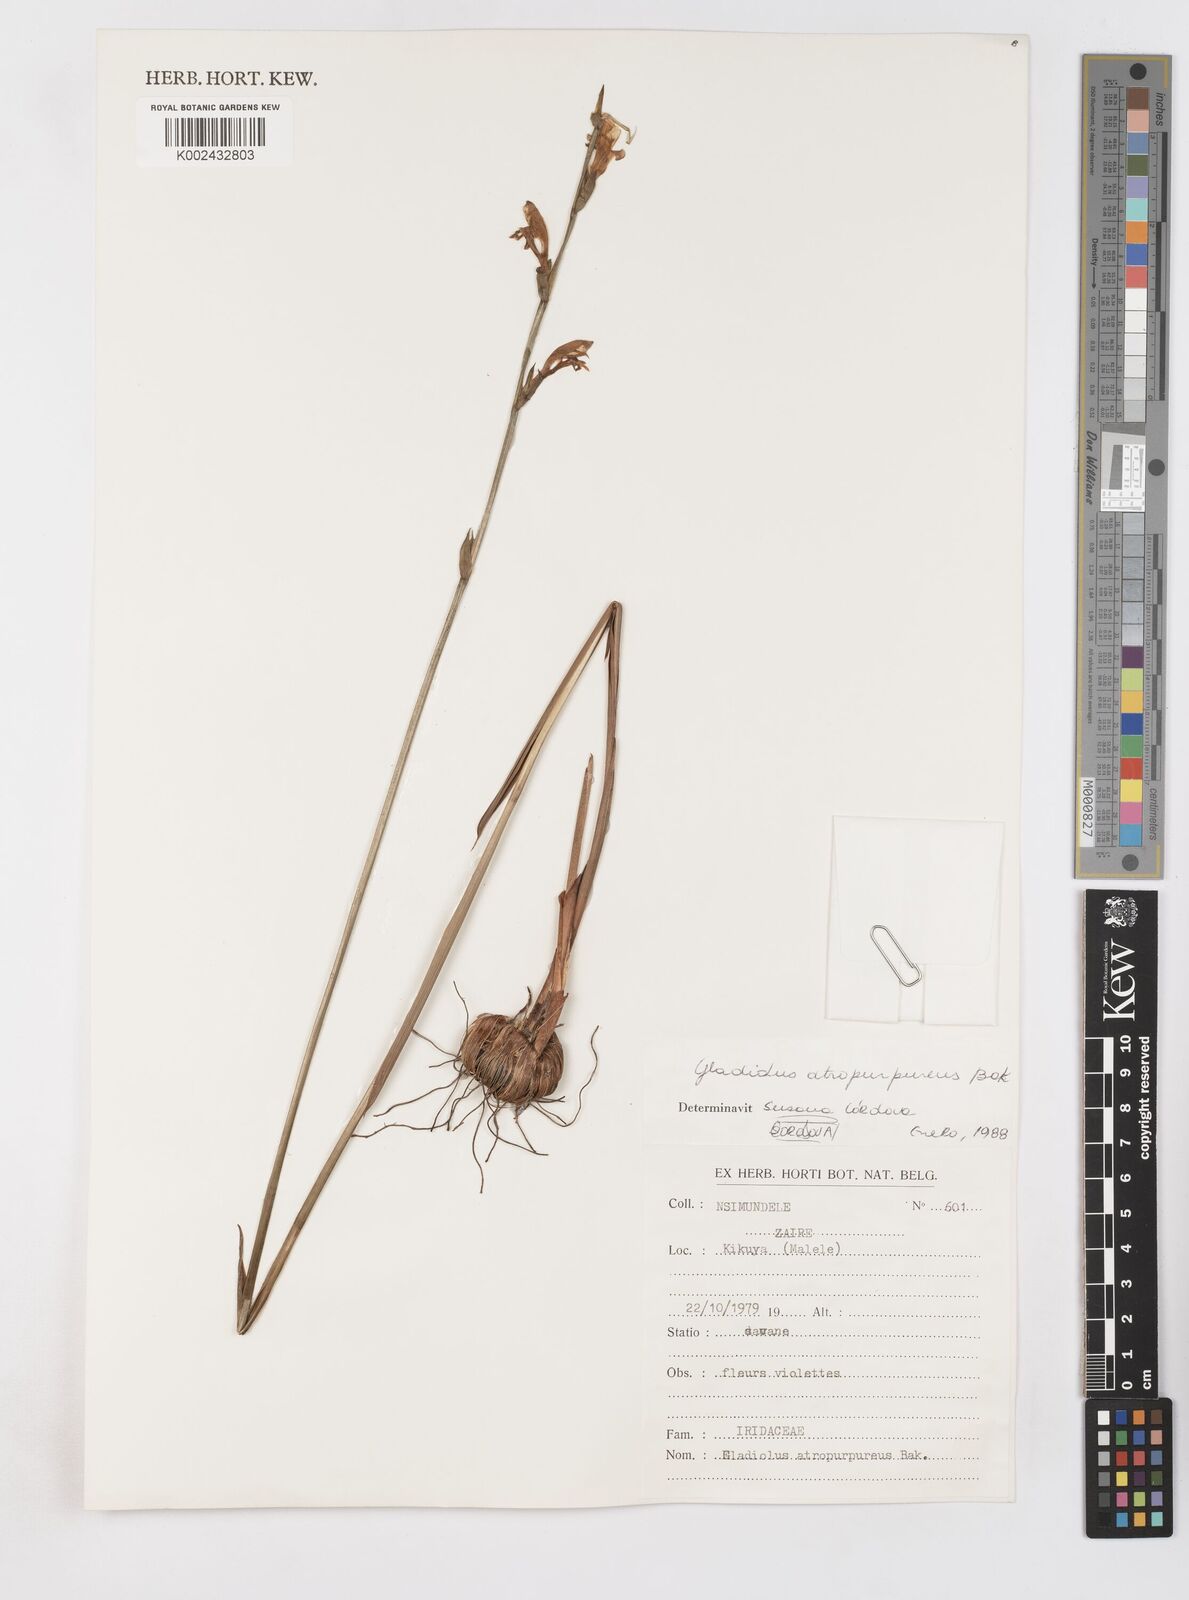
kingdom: Plantae
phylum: Tracheophyta
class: Liliopsida
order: Asparagales
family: Iridaceae
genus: Gladiolus
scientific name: Gladiolus atropurpureus
